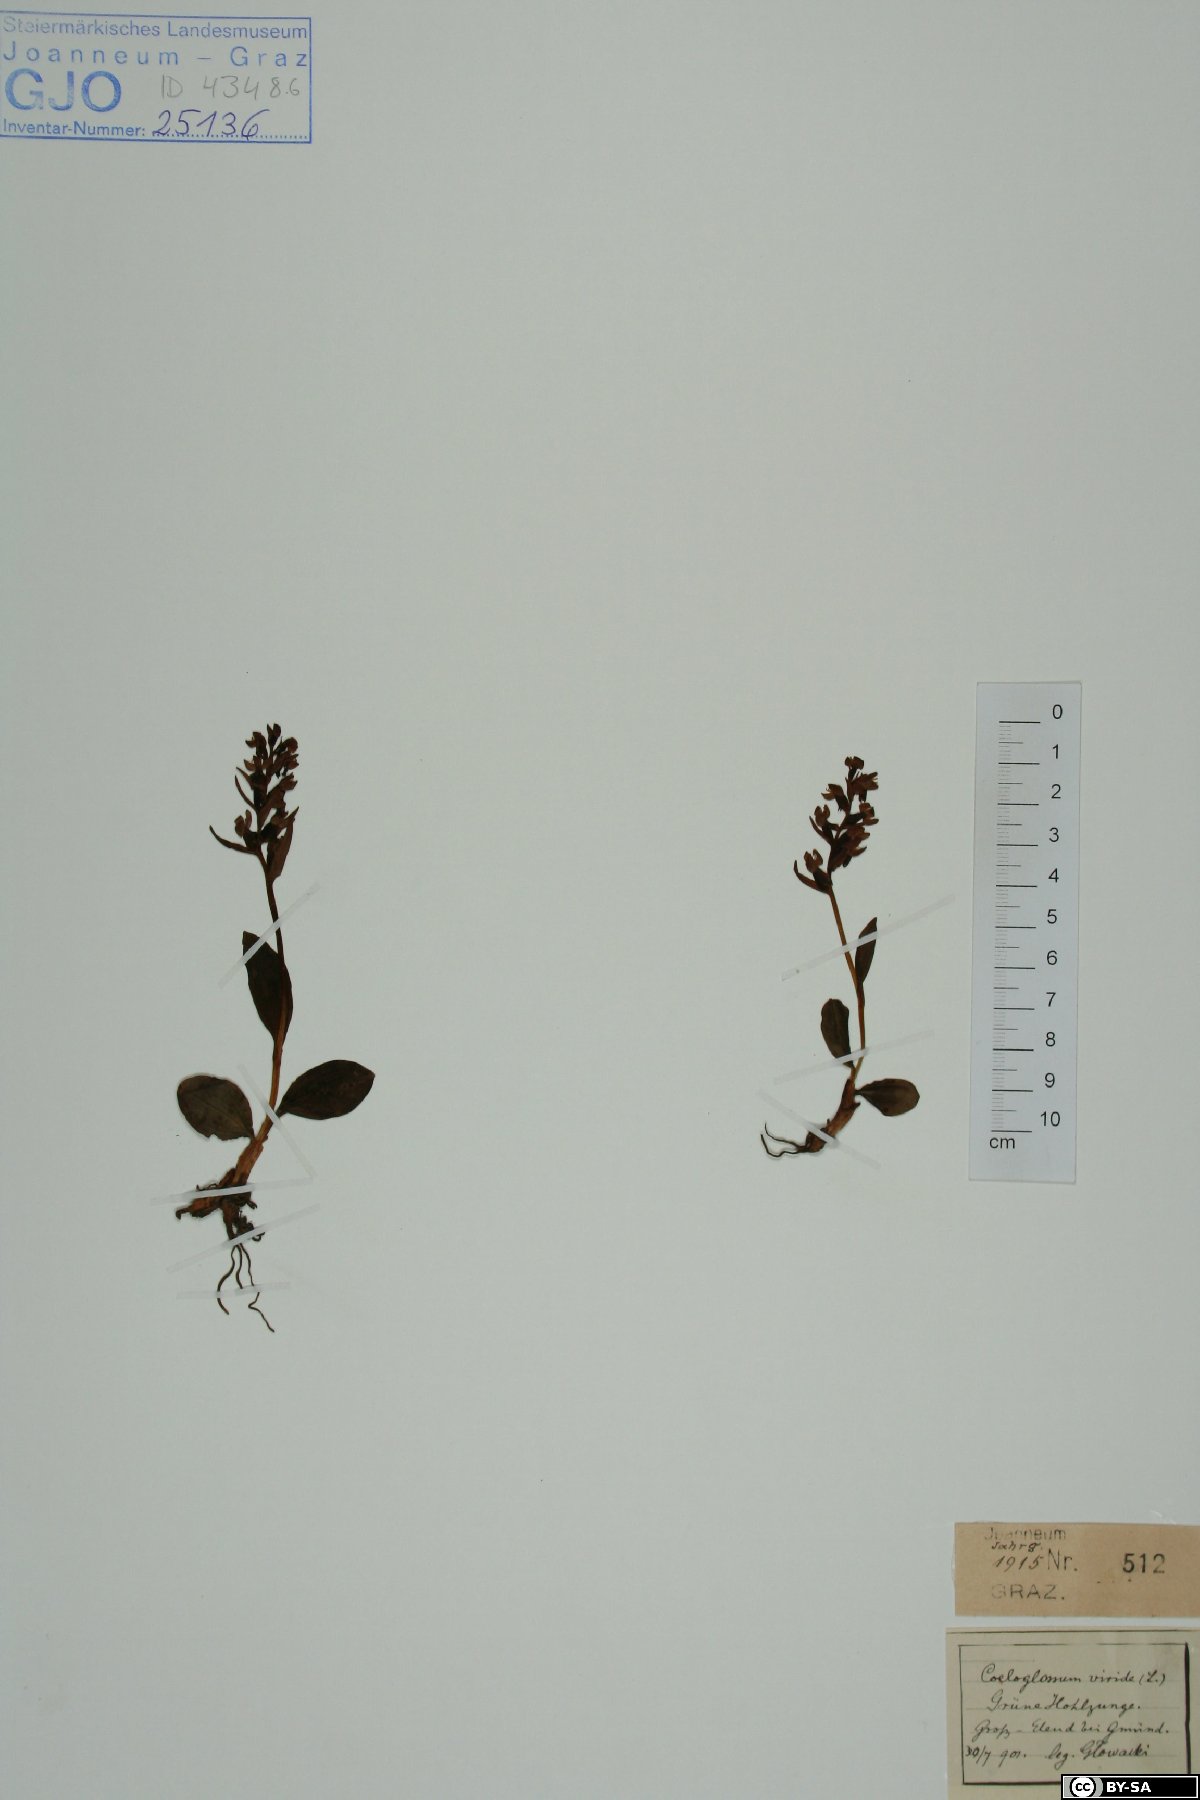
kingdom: Plantae
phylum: Tracheophyta
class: Liliopsida
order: Asparagales
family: Orchidaceae
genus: Dactylorhiza
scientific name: Dactylorhiza viridis
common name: Longbract frog orchid
